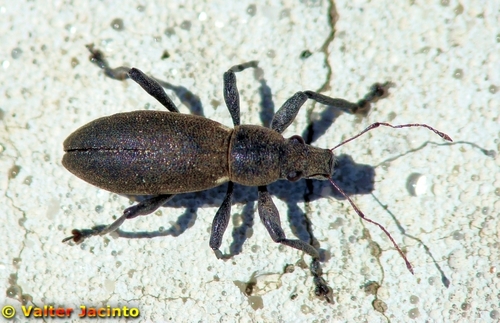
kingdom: Animalia
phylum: Arthropoda
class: Insecta
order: Coleoptera
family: Curculionidae
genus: Brachyderes
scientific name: Brachyderes lusitanicus
